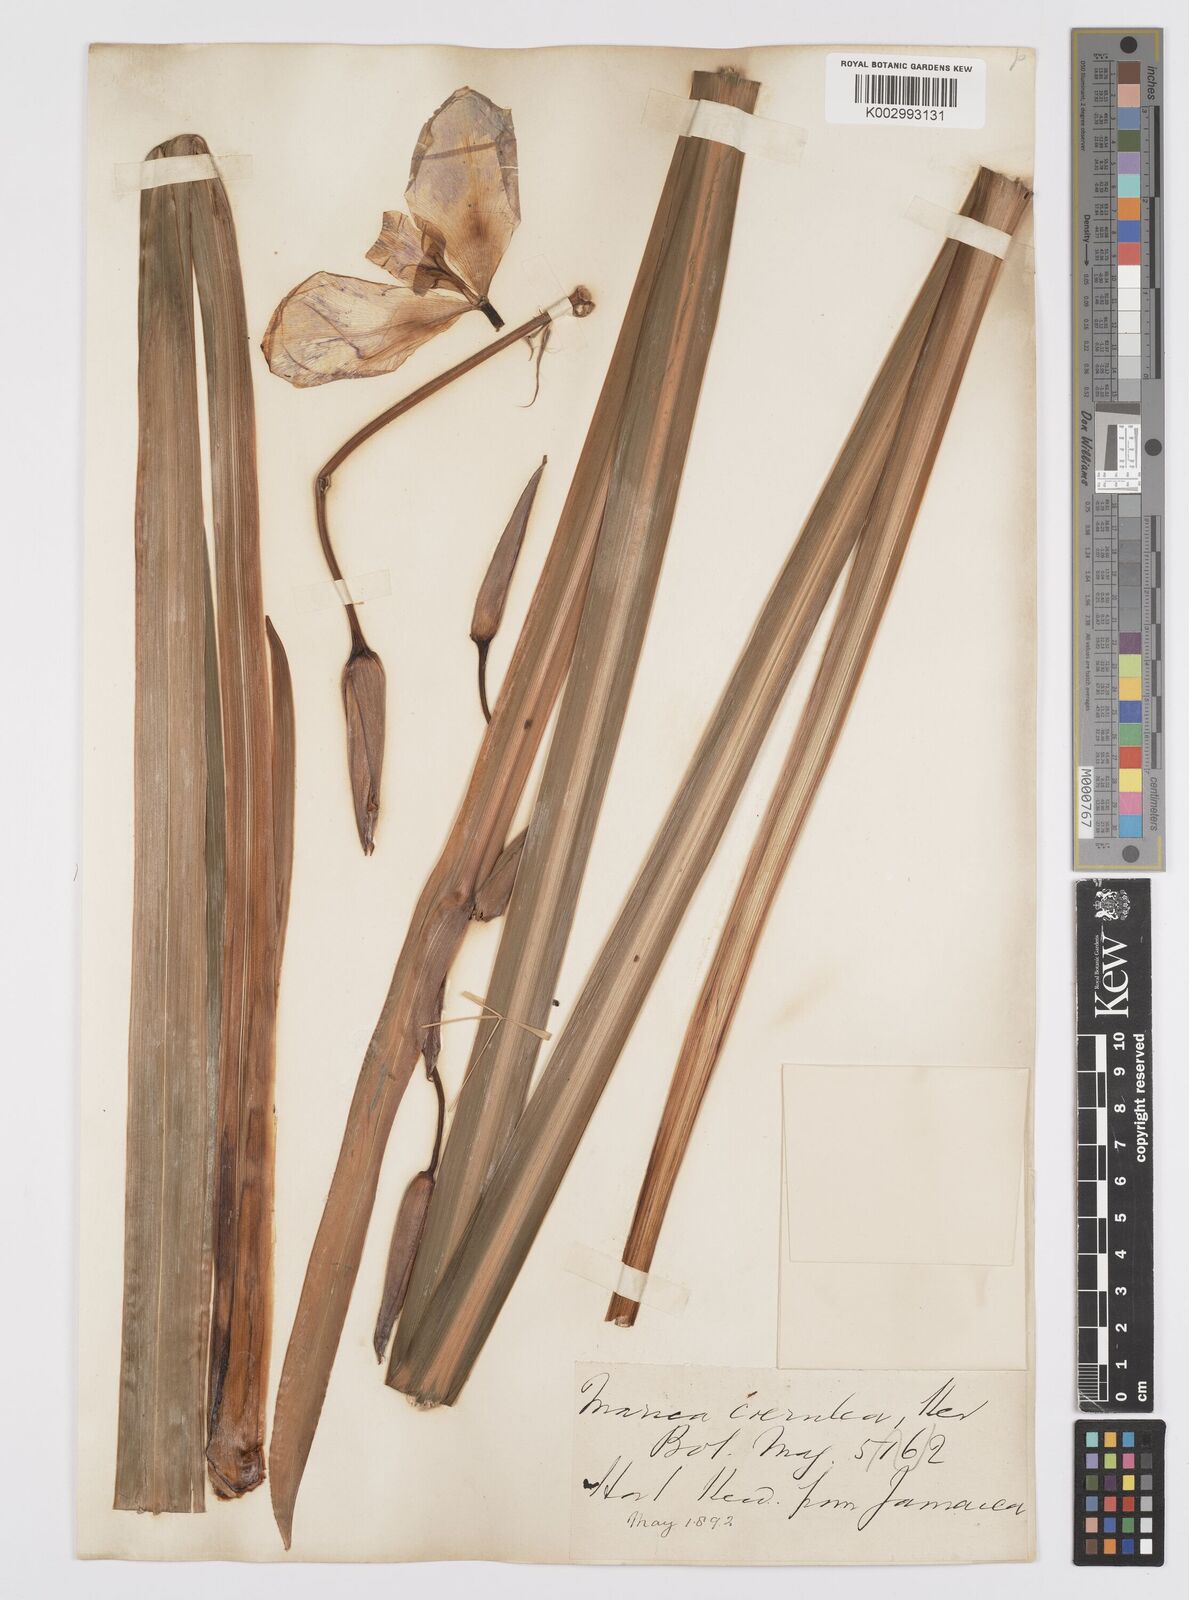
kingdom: Plantae
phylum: Tracheophyta
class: Liliopsida
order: Asparagales
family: Iridaceae
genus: Trimezia
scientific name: Trimezia coerulea
